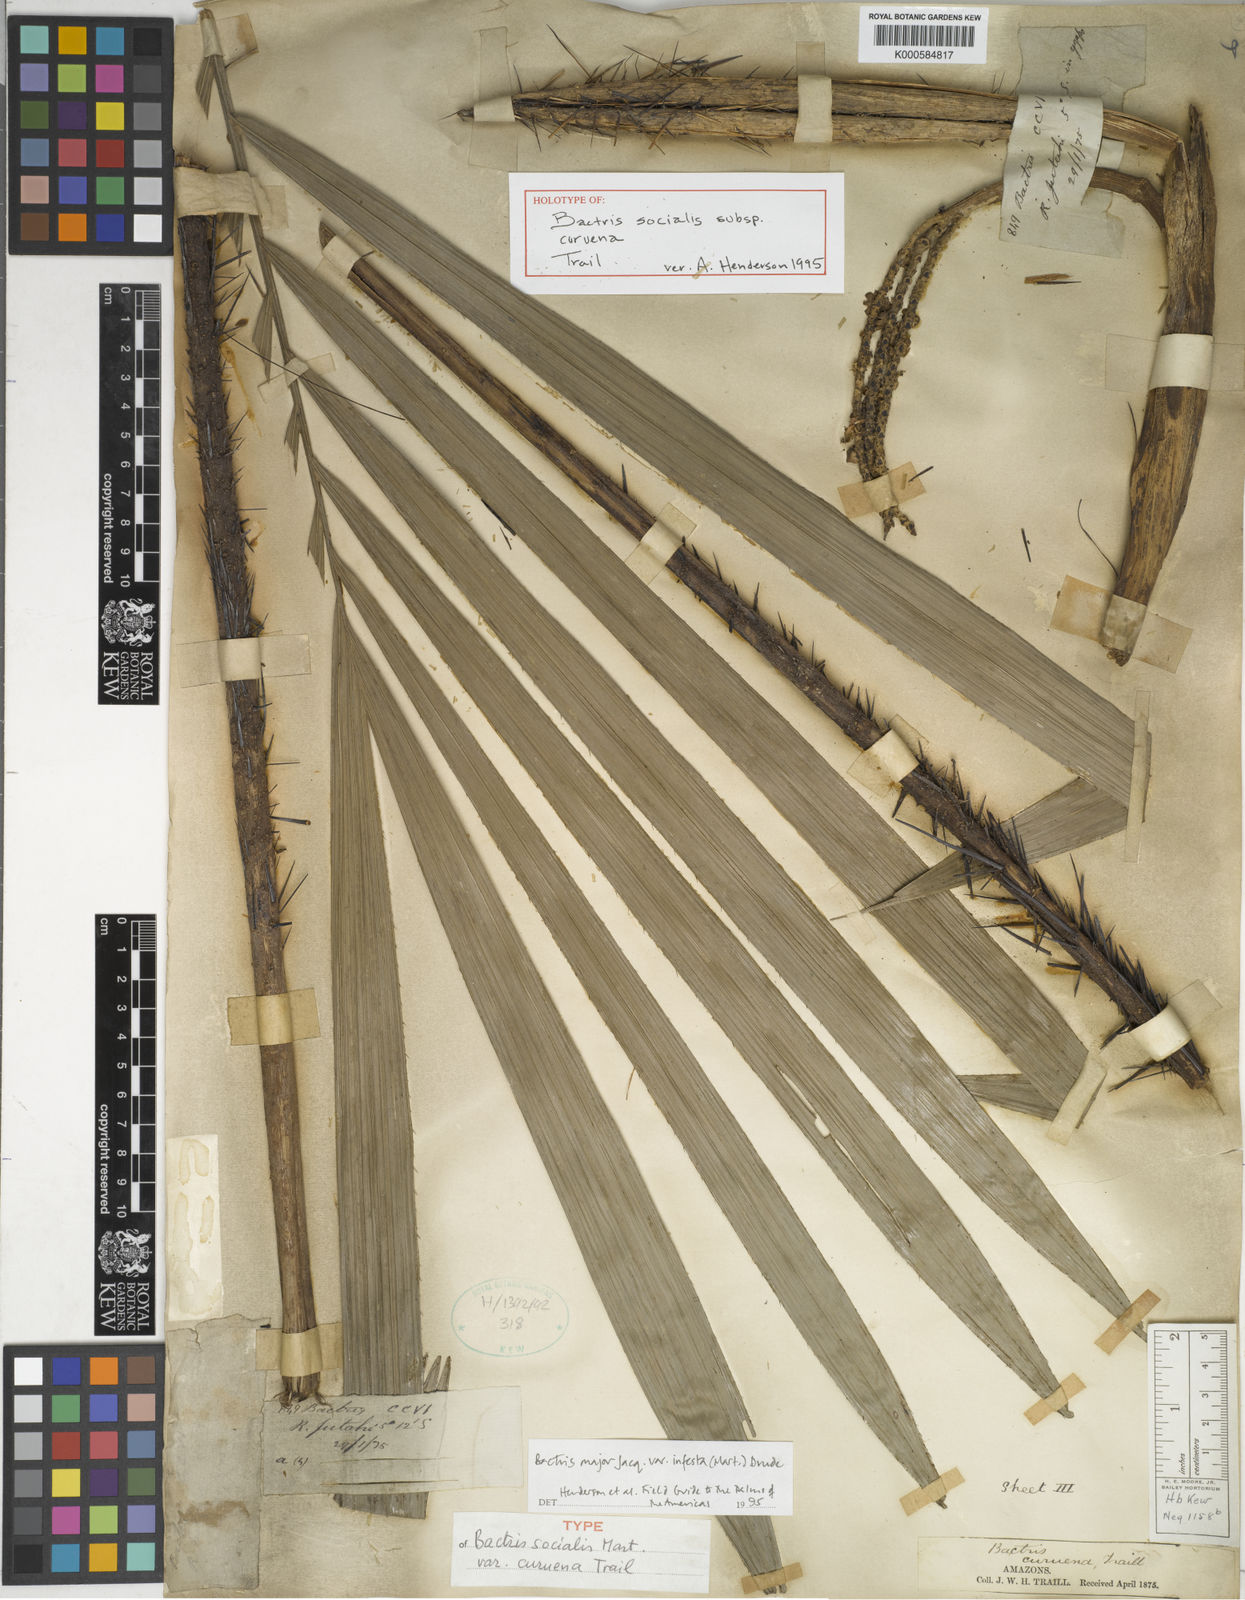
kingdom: Plantae
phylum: Tracheophyta
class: Liliopsida
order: Arecales
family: Arecaceae
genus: Bactris
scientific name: Bactris major
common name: Beach palm
